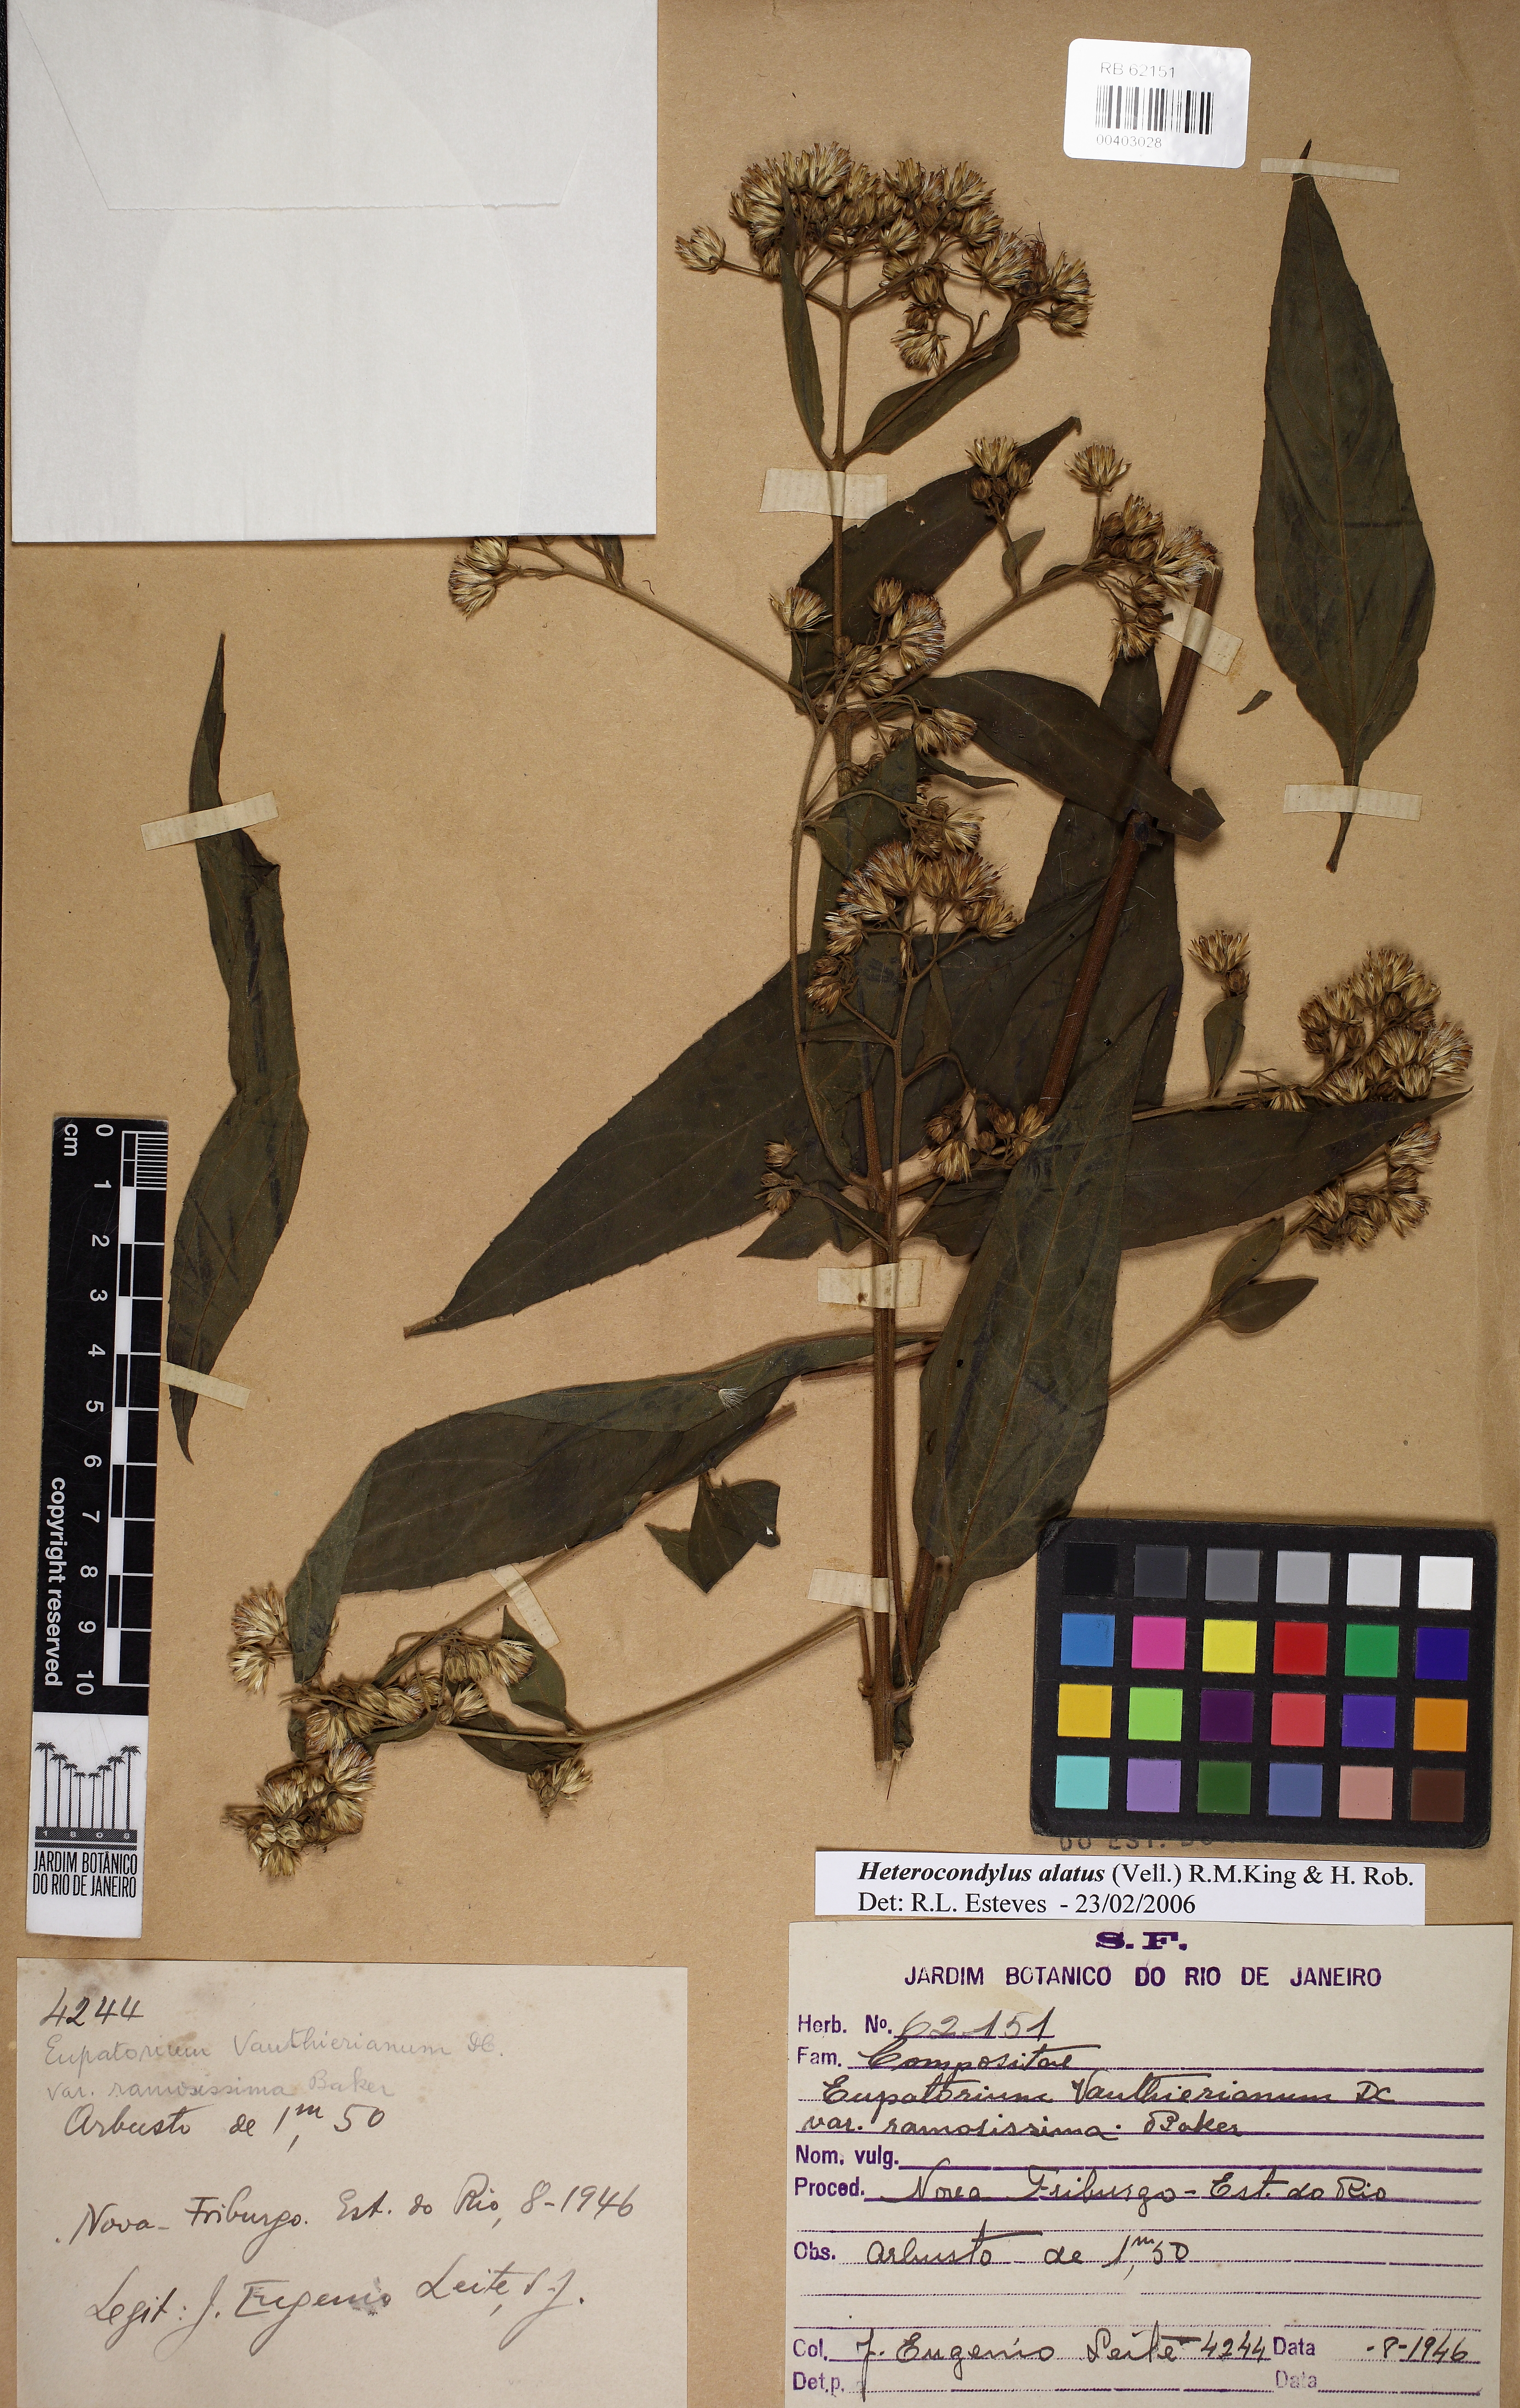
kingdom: Plantae
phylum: Tracheophyta
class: Magnoliopsida
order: Asterales
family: Asteraceae
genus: Heterocondylus
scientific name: Heterocondylus alatus
